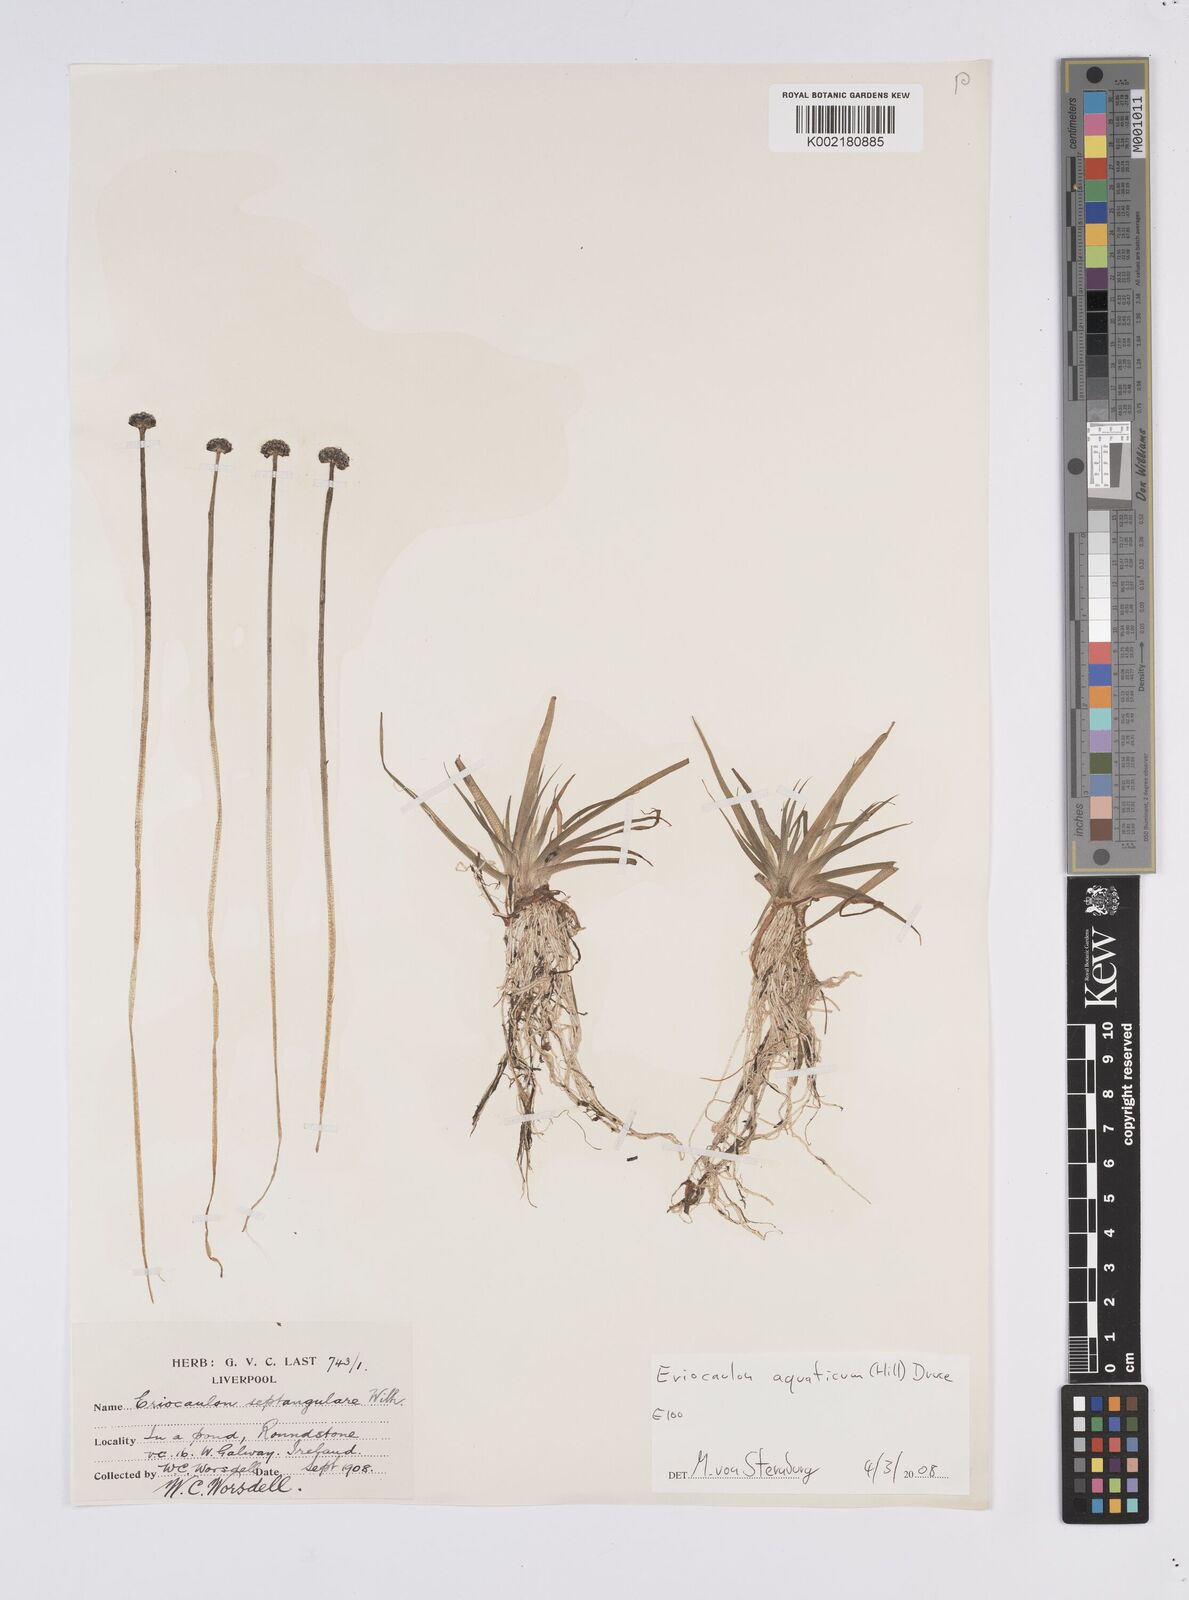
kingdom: Plantae
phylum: Tracheophyta
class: Liliopsida
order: Poales
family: Eriocaulaceae
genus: Eriocaulon
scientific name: Eriocaulon aquaticum
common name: Pipewort
